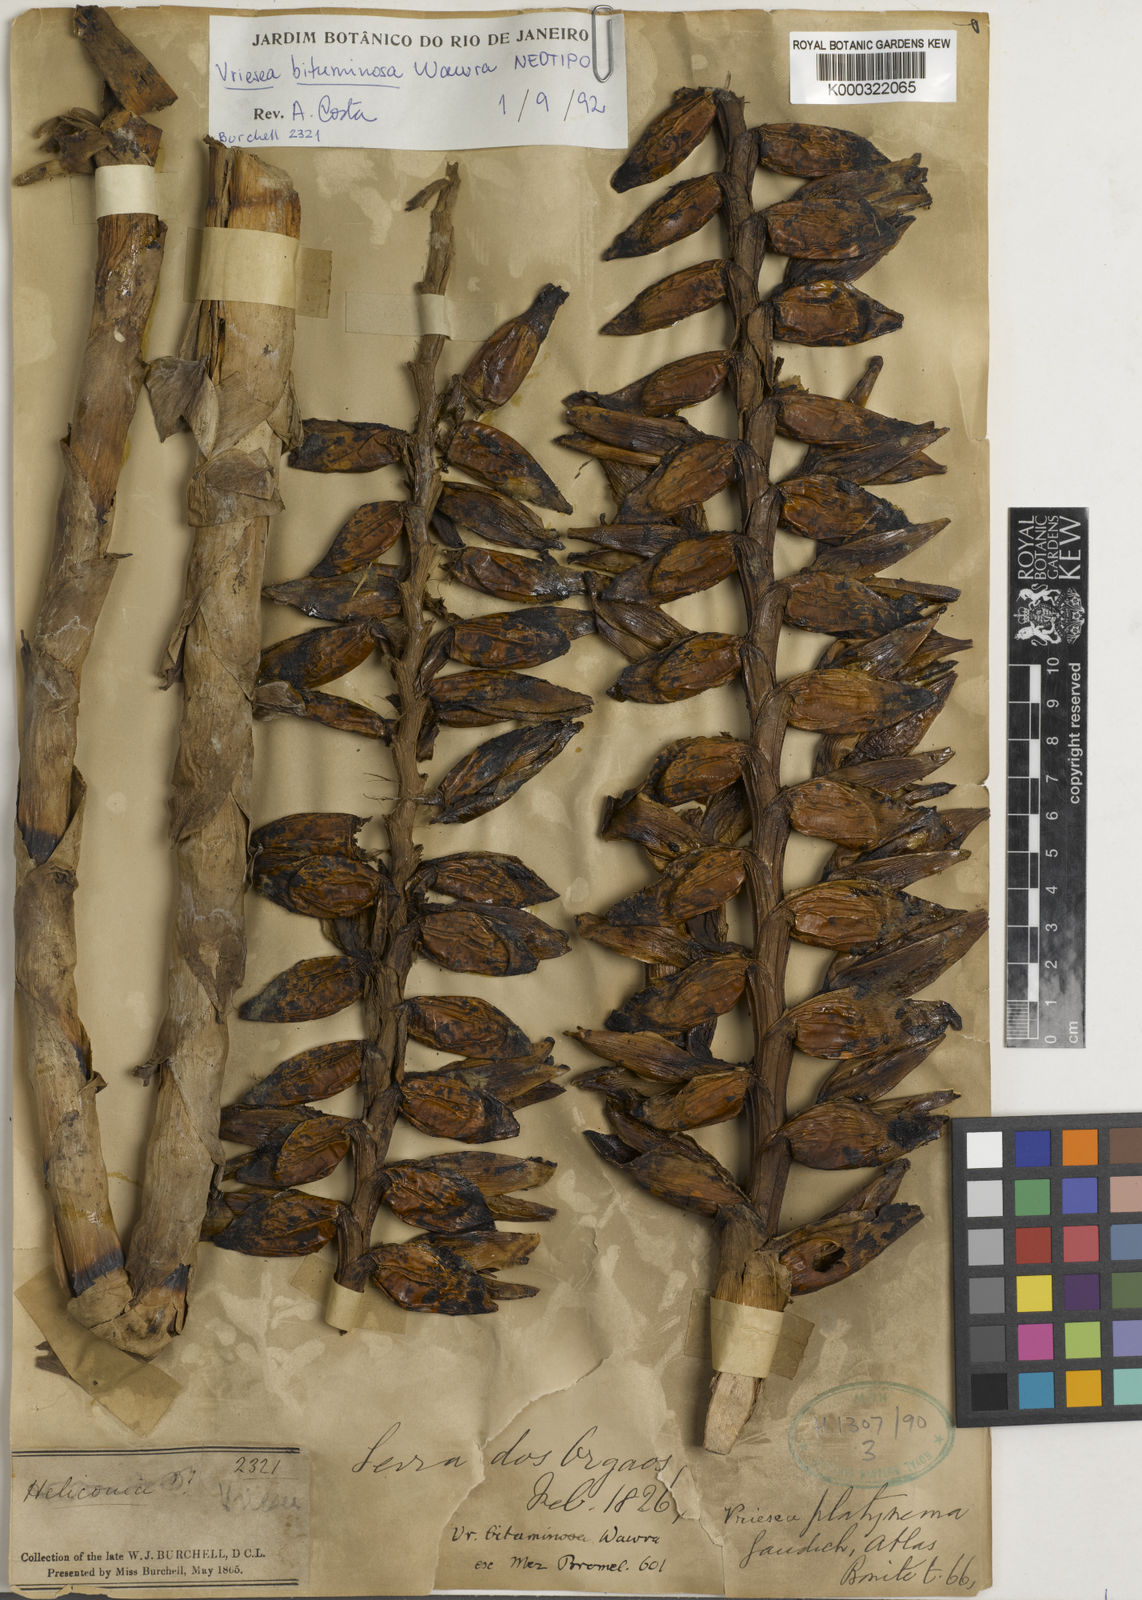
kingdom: Plantae
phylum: Tracheophyta
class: Liliopsida
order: Poales
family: Bromeliaceae
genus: Vriesea
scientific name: Vriesea bituminosa
